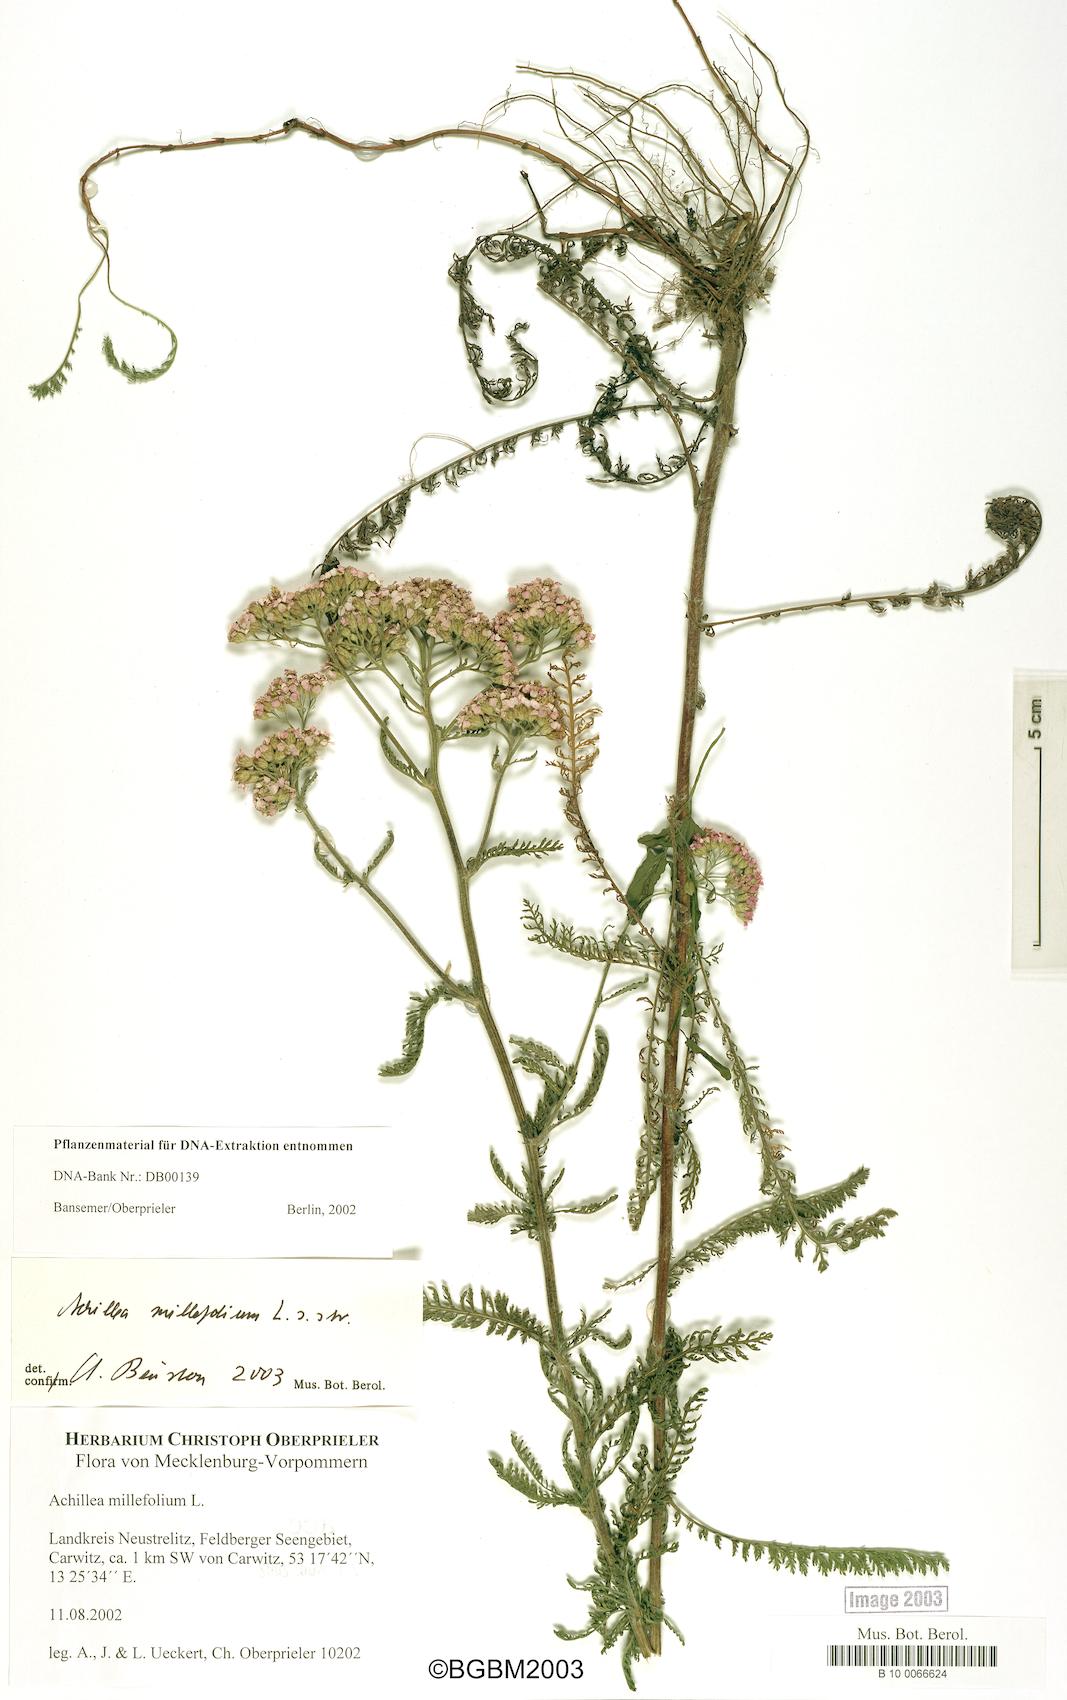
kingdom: Plantae
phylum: Tracheophyta
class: Magnoliopsida
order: Asterales
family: Asteraceae
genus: Achillea
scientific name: Achillea millefolium
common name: Yarrow
